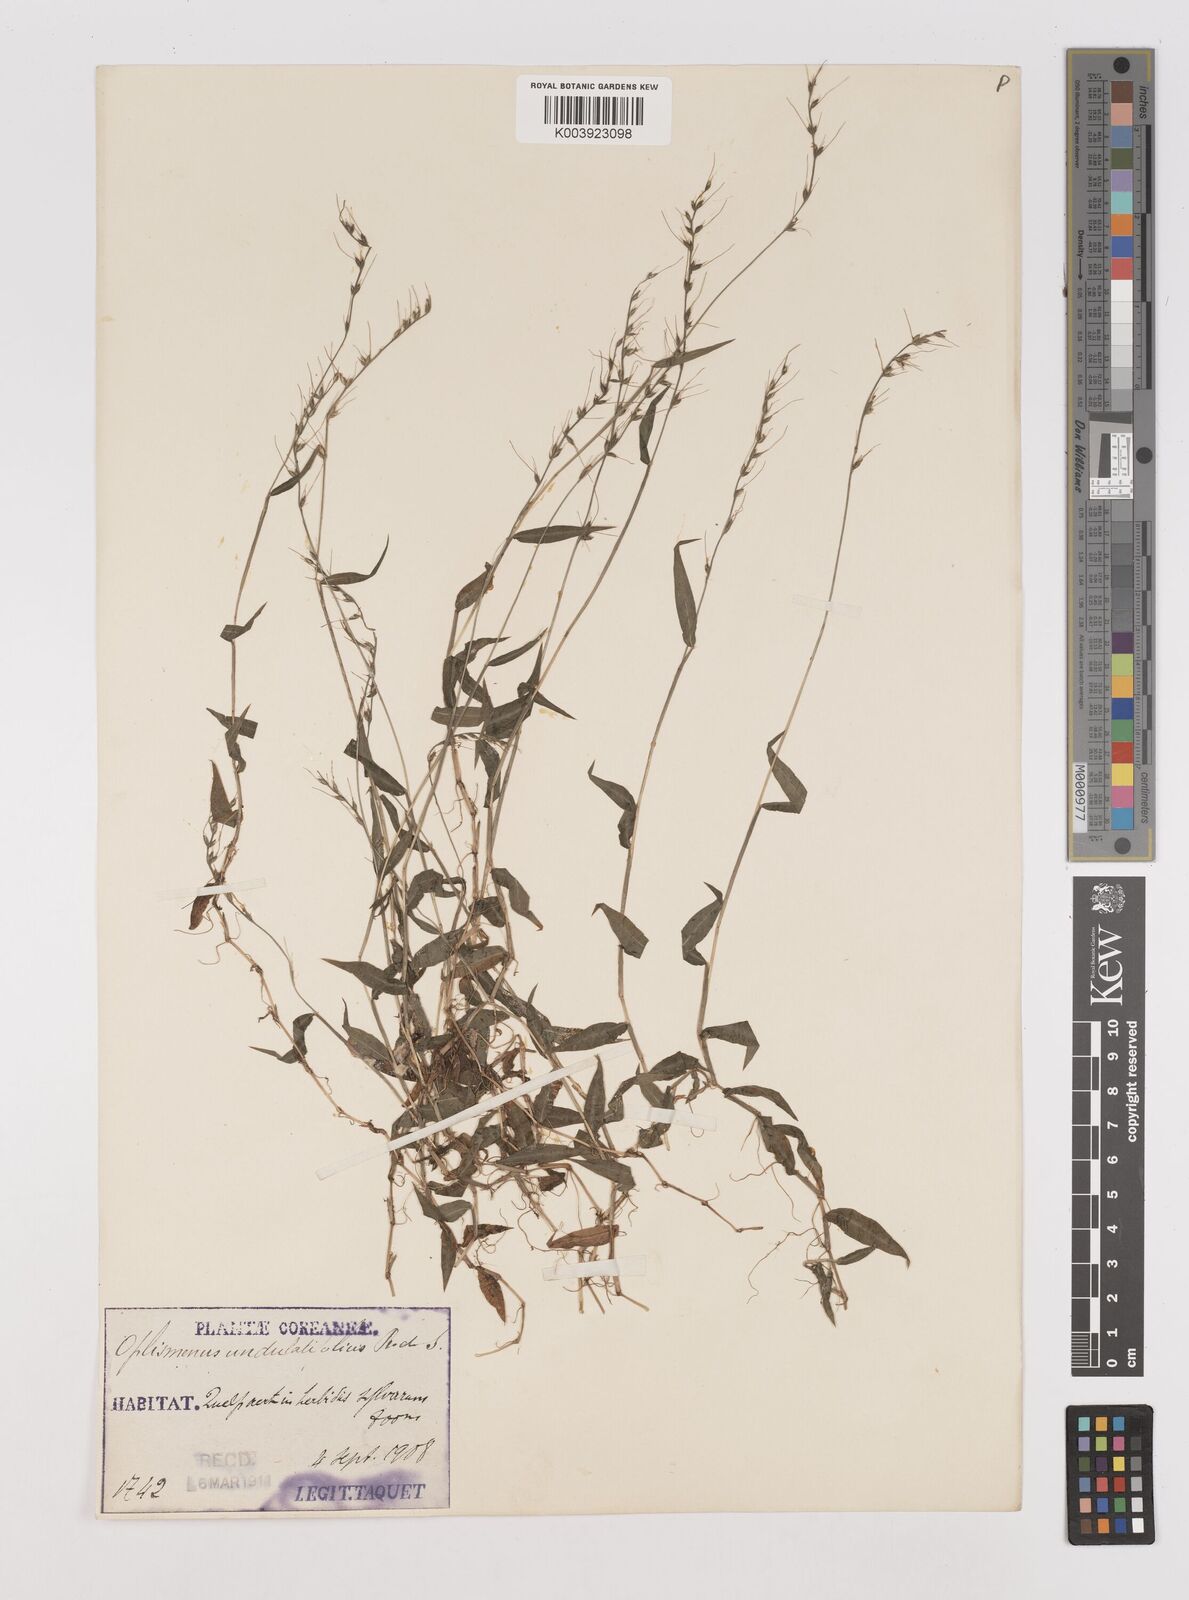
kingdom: Plantae
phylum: Tracheophyta
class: Liliopsida
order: Poales
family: Poaceae
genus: Oplismenus
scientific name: Oplismenus undulatifolius
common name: Wavyleaf basketgrass
